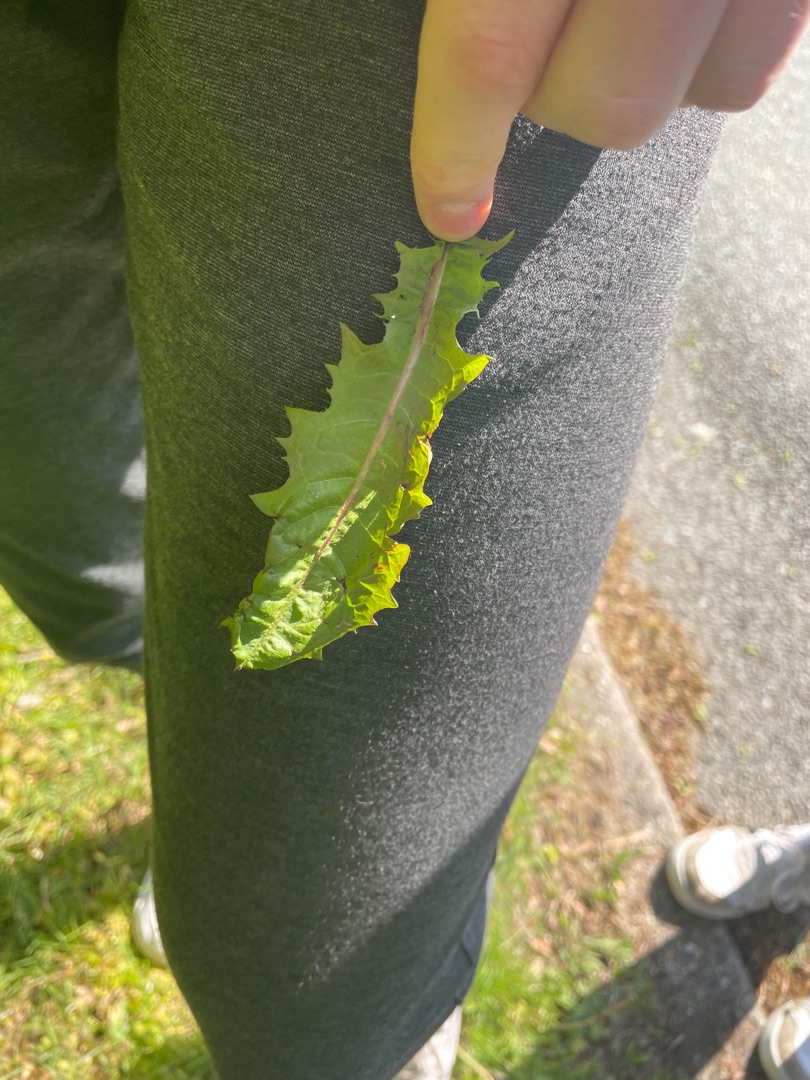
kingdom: Plantae
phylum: Tracheophyta
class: Magnoliopsida
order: Asterales
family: Asteraceae
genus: Taraxacum
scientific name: Taraxacum
